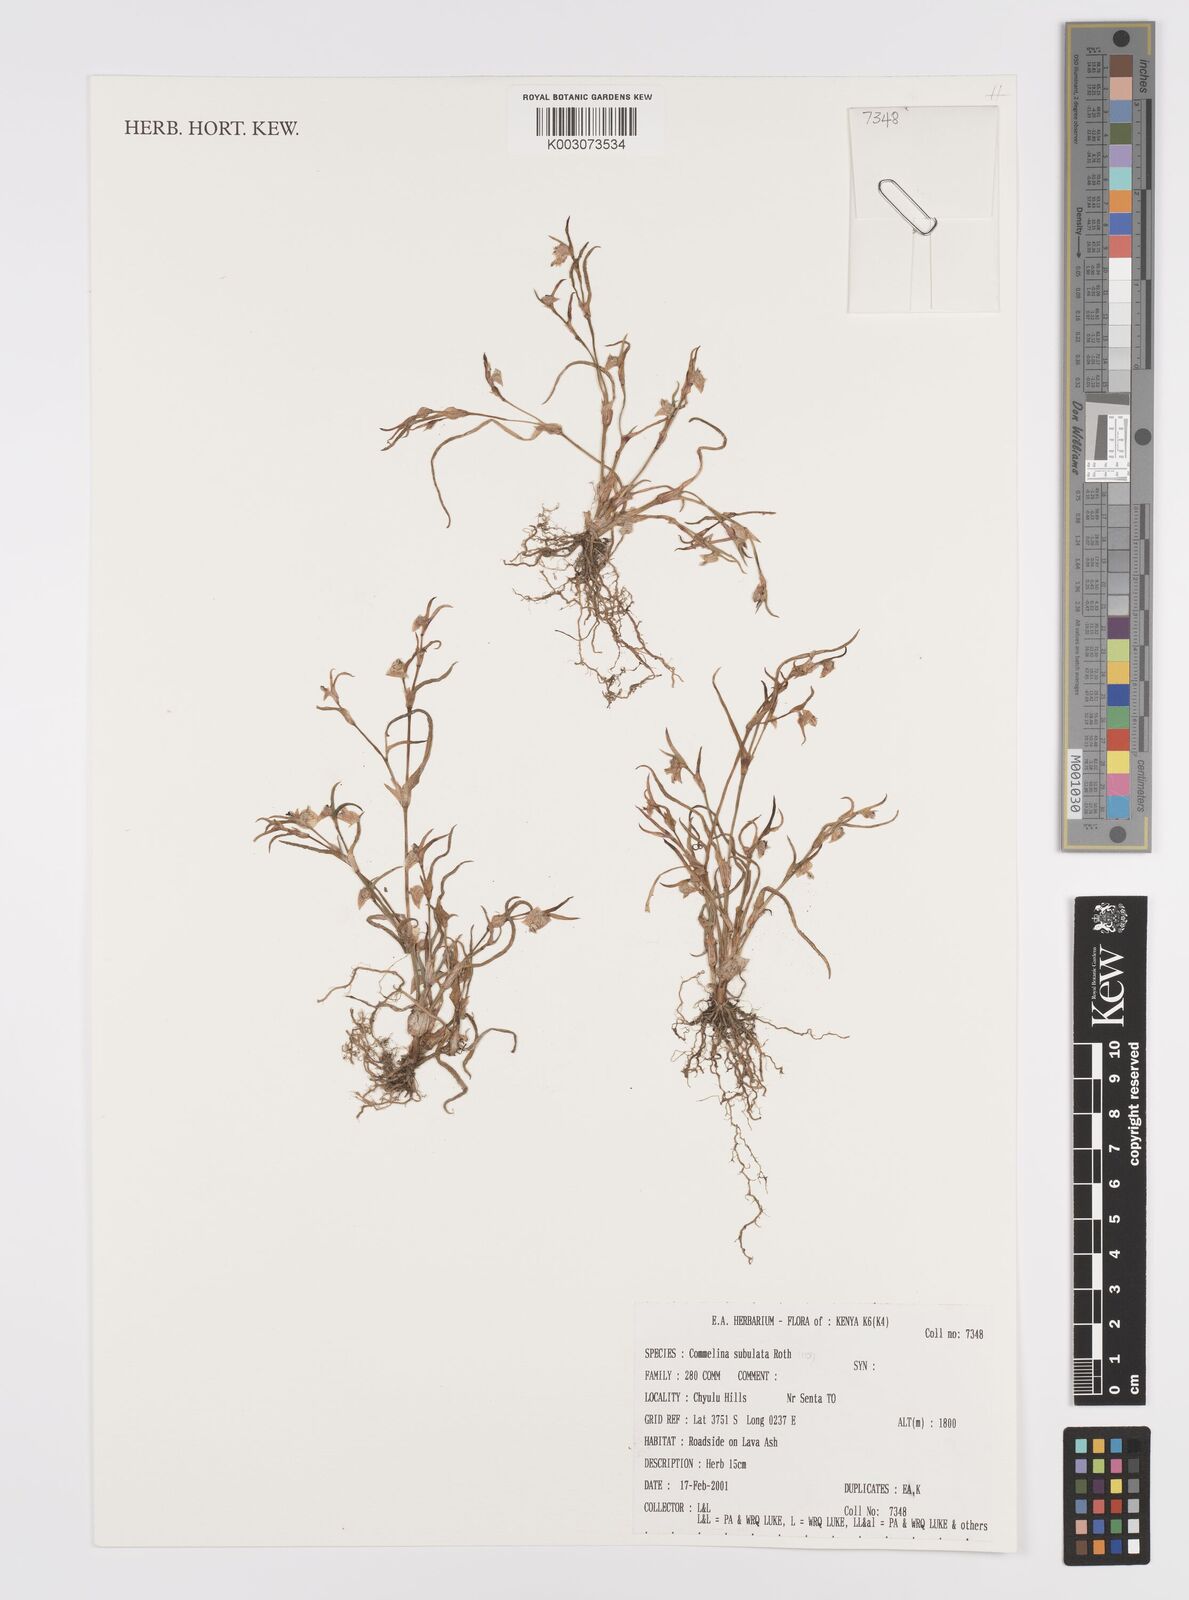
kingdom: Plantae
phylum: Tracheophyta
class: Liliopsida
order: Commelinales
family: Commelinaceae
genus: Commelina
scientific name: Commelina subulata
